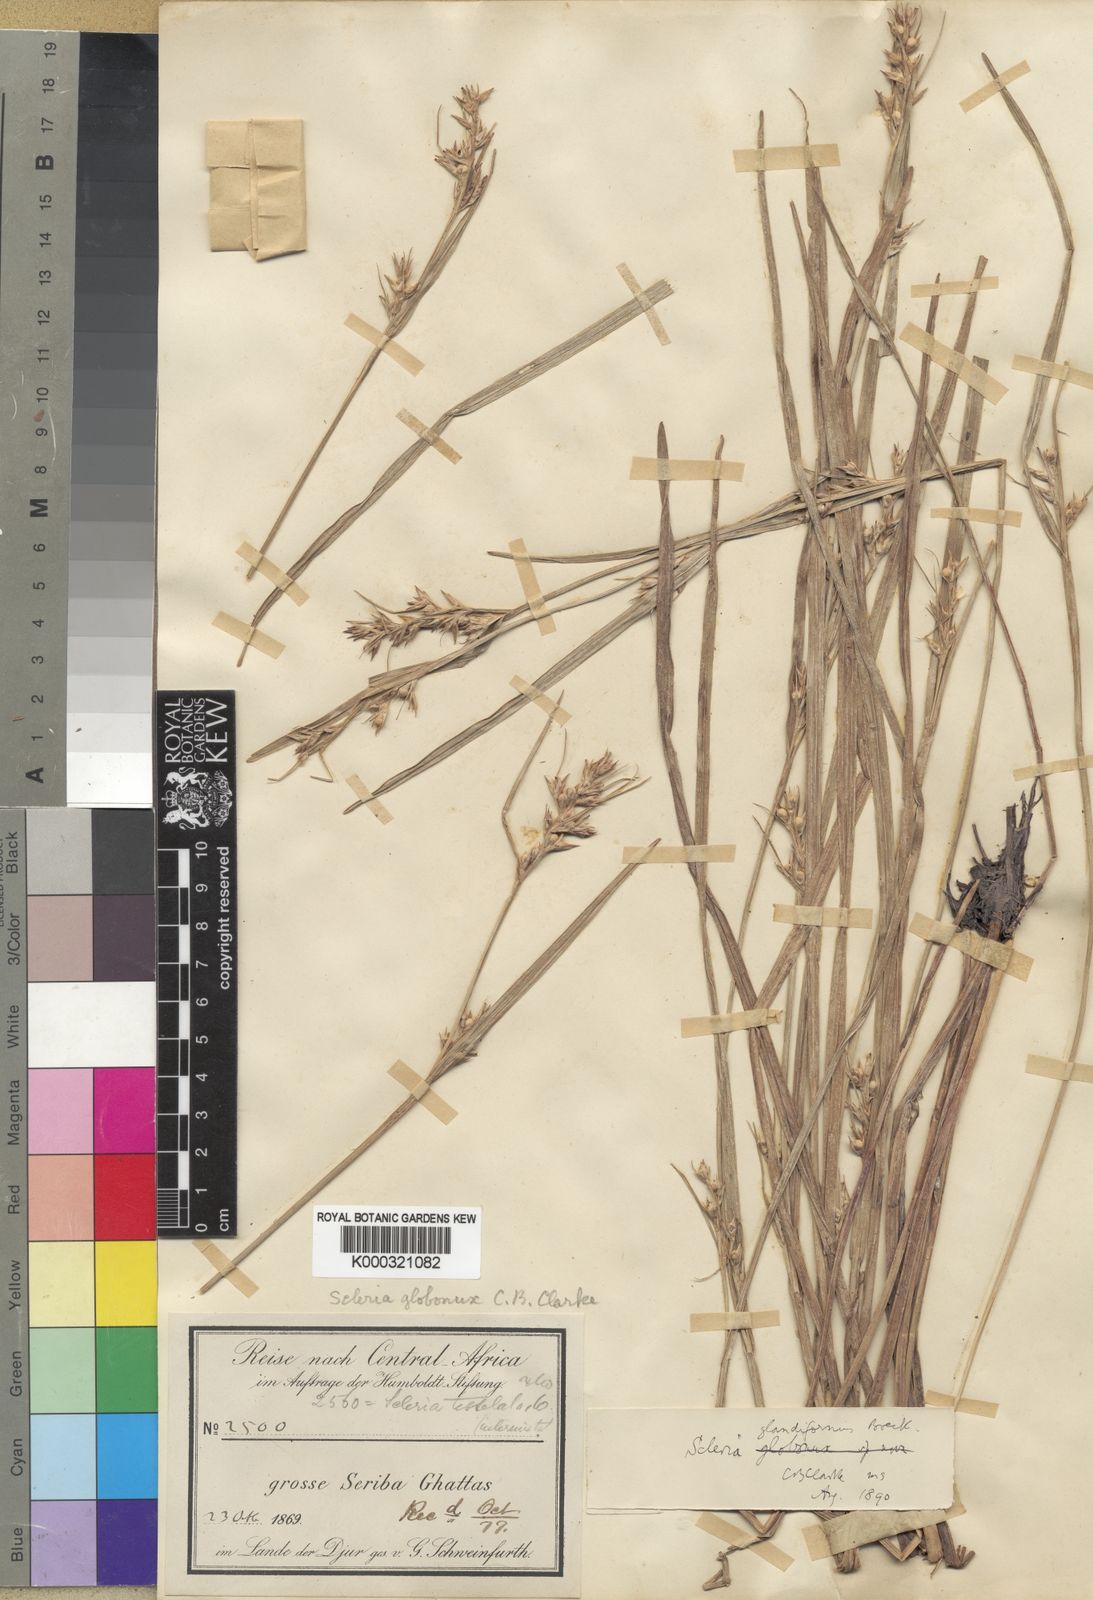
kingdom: Plantae
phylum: Tracheophyta
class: Liliopsida
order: Poales
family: Cyperaceae
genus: Scleria
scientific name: Scleria globonux
